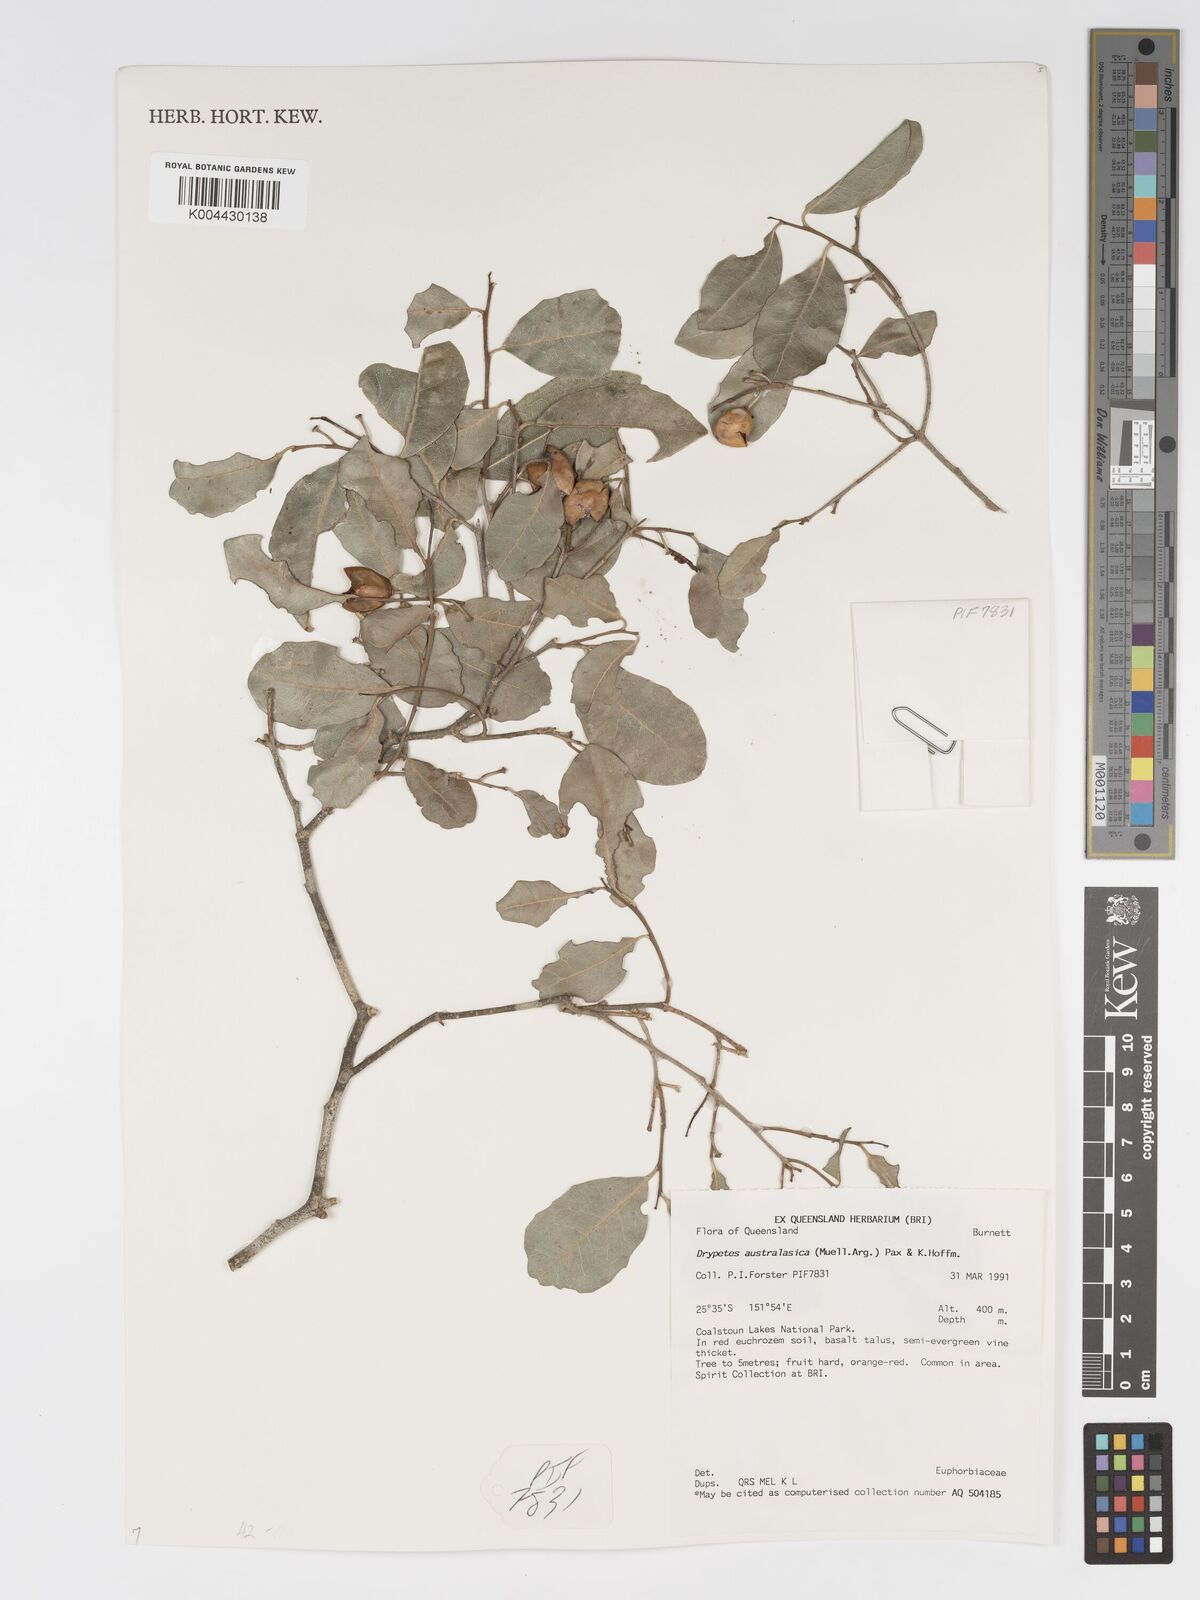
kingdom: Plantae
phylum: Tracheophyta
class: Magnoliopsida
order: Malpighiales
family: Putranjivaceae
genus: Drypetes
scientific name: Drypetes deplanchei
